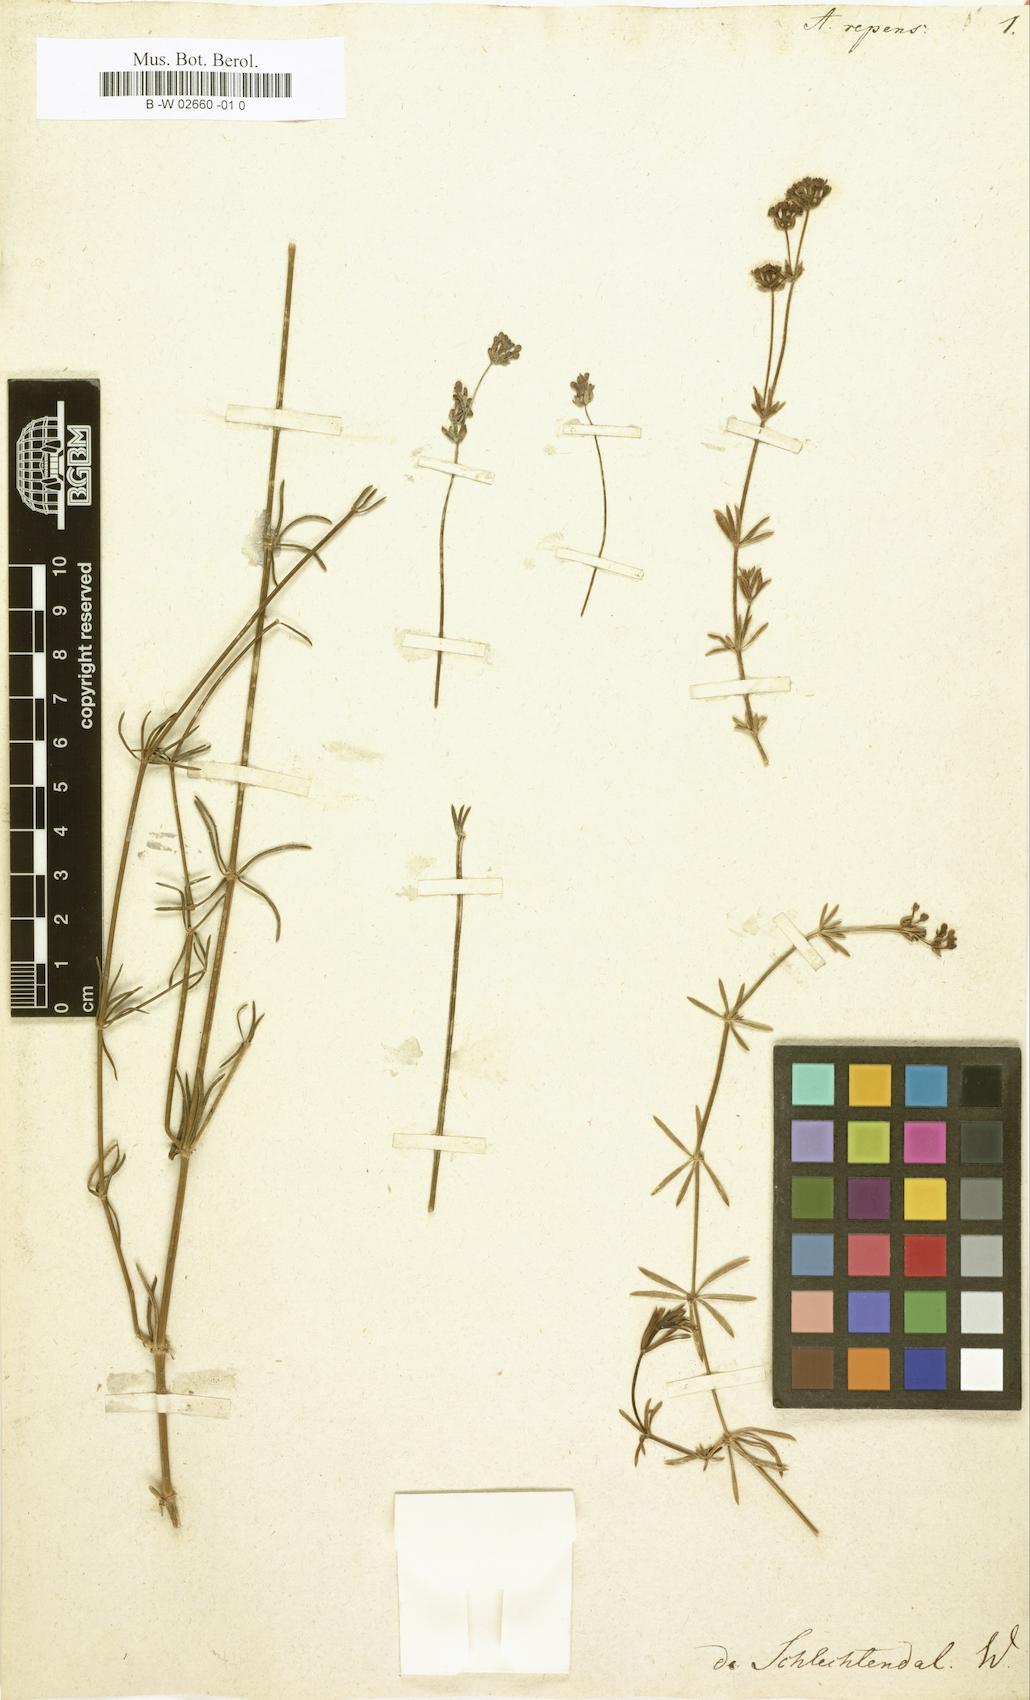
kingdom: Plantae
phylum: Tracheophyta
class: Magnoliopsida
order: Gentianales
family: Rubiaceae
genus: Hexaphylla
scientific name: Hexaphylla hirsuta
